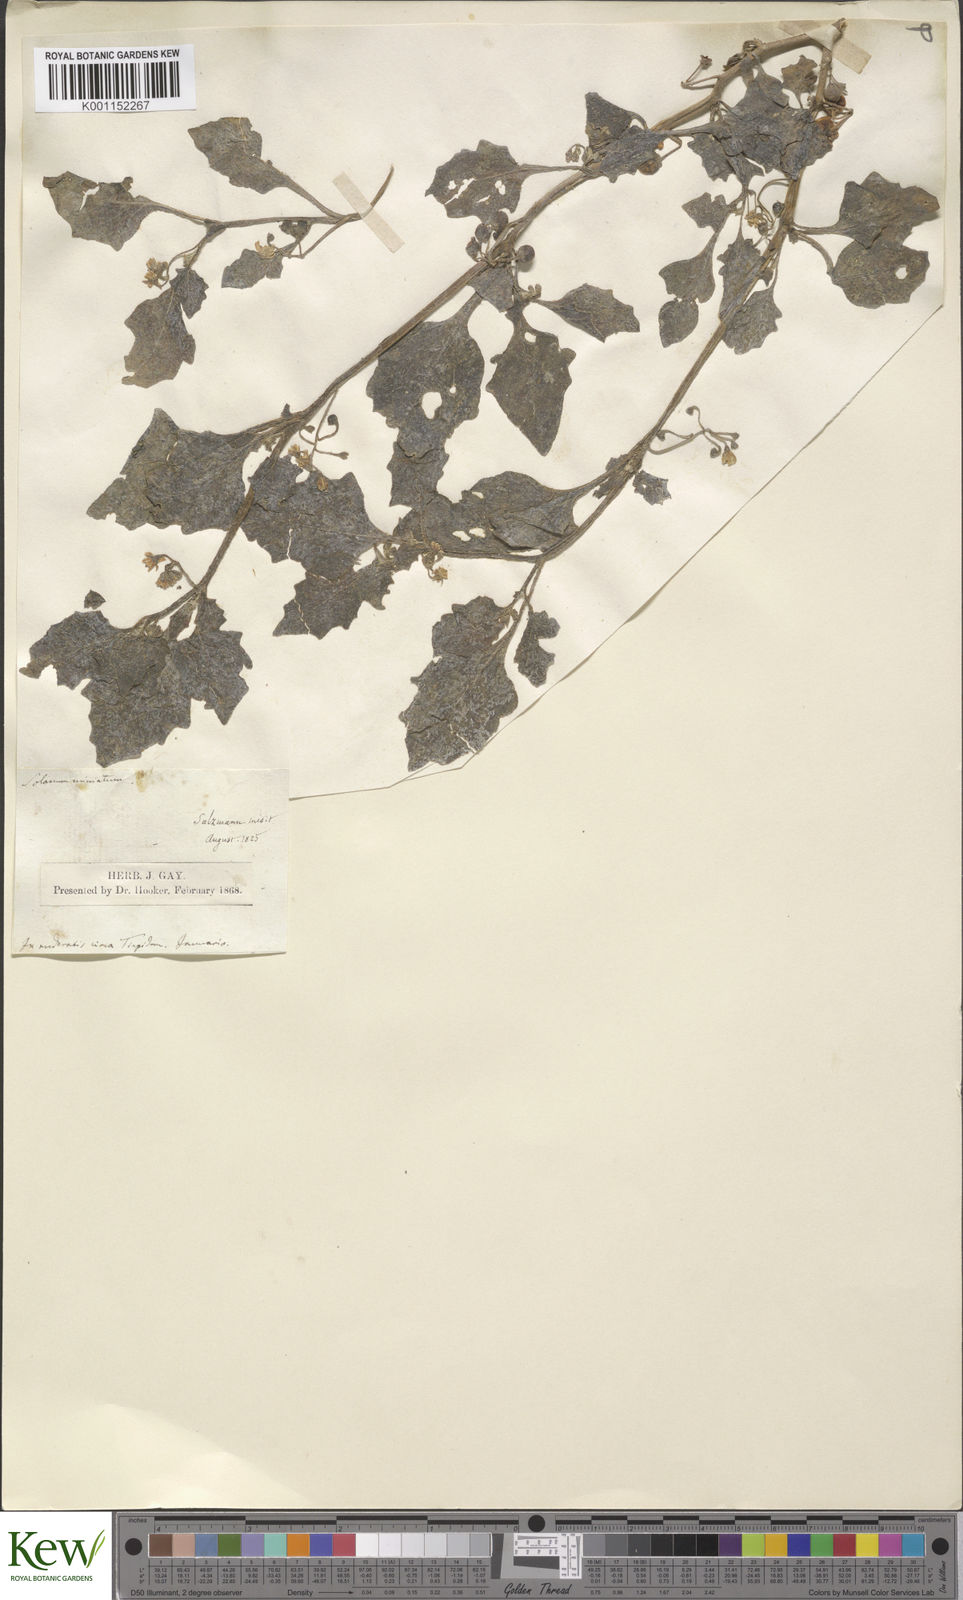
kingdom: Plantae
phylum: Tracheophyta
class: Magnoliopsida
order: Solanales
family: Solanaceae
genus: Solanum
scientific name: Solanum villosum
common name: Red nightshade
